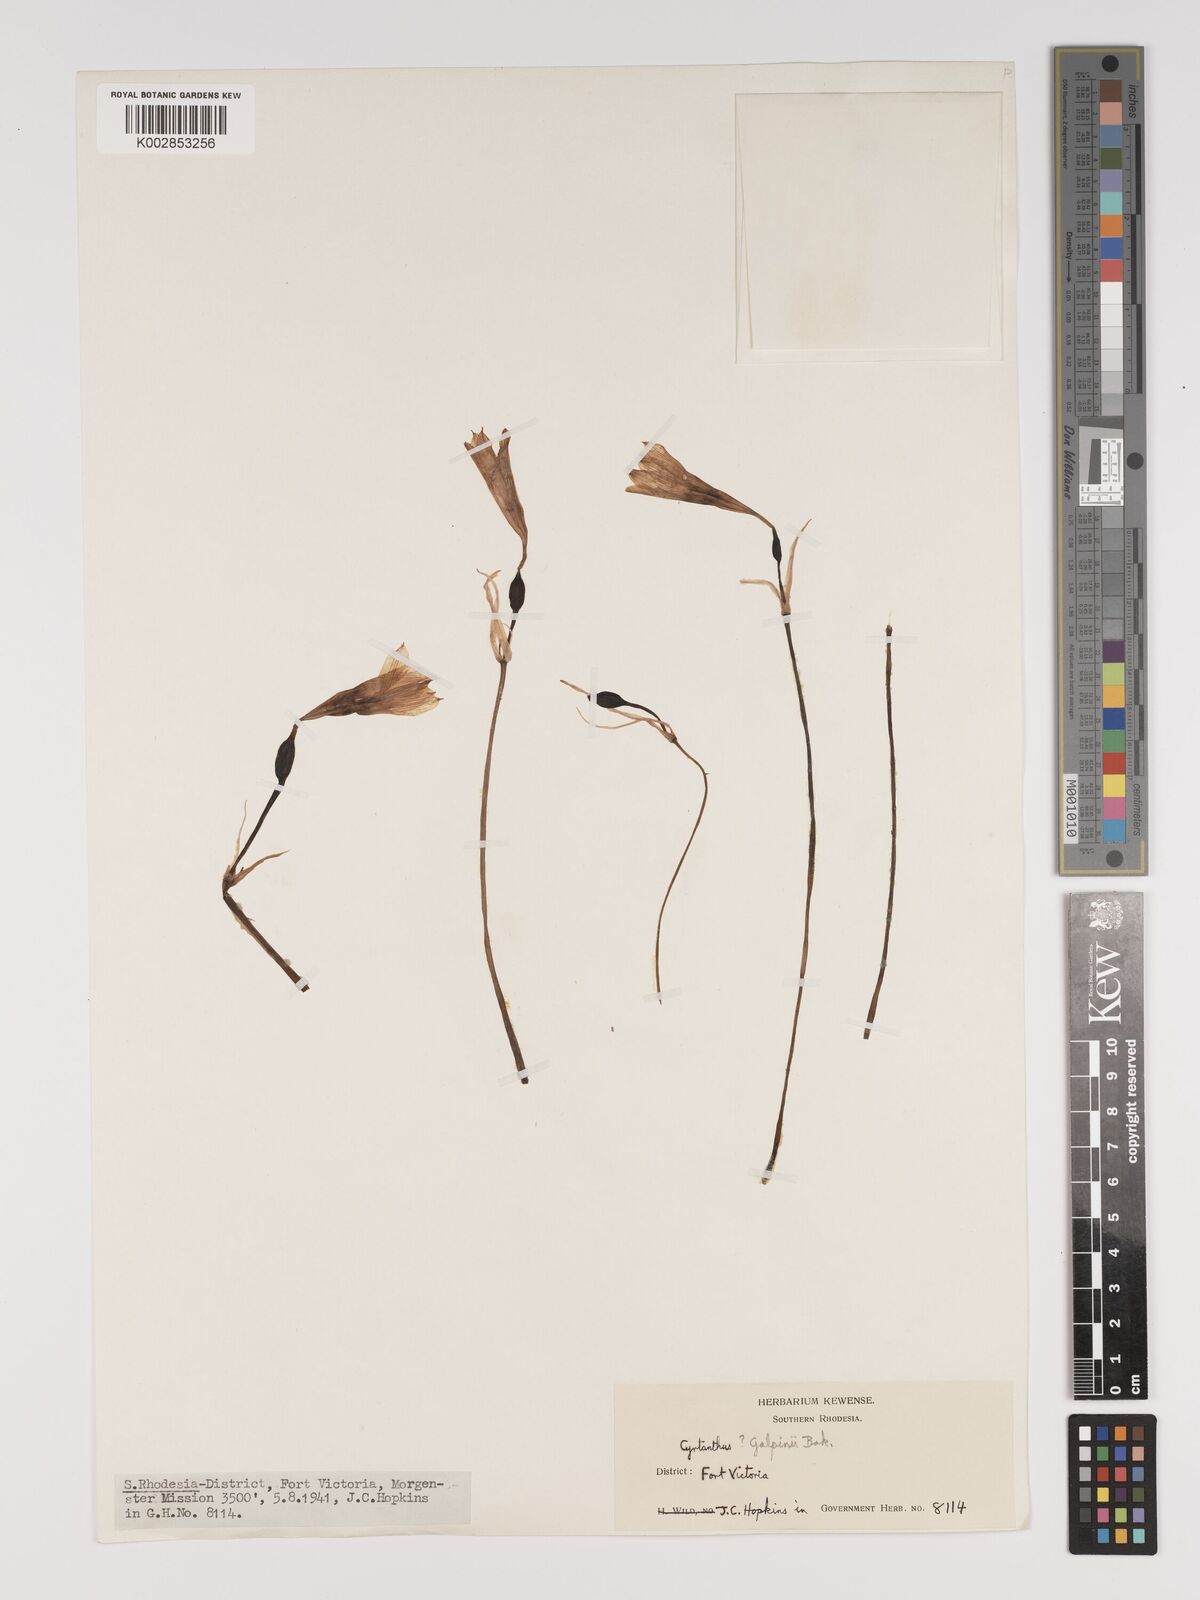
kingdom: Plantae
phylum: Tracheophyta
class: Liliopsida
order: Asparagales
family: Amaryllidaceae
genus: Cyrtanthus
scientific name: Cyrtanthus galpinii
